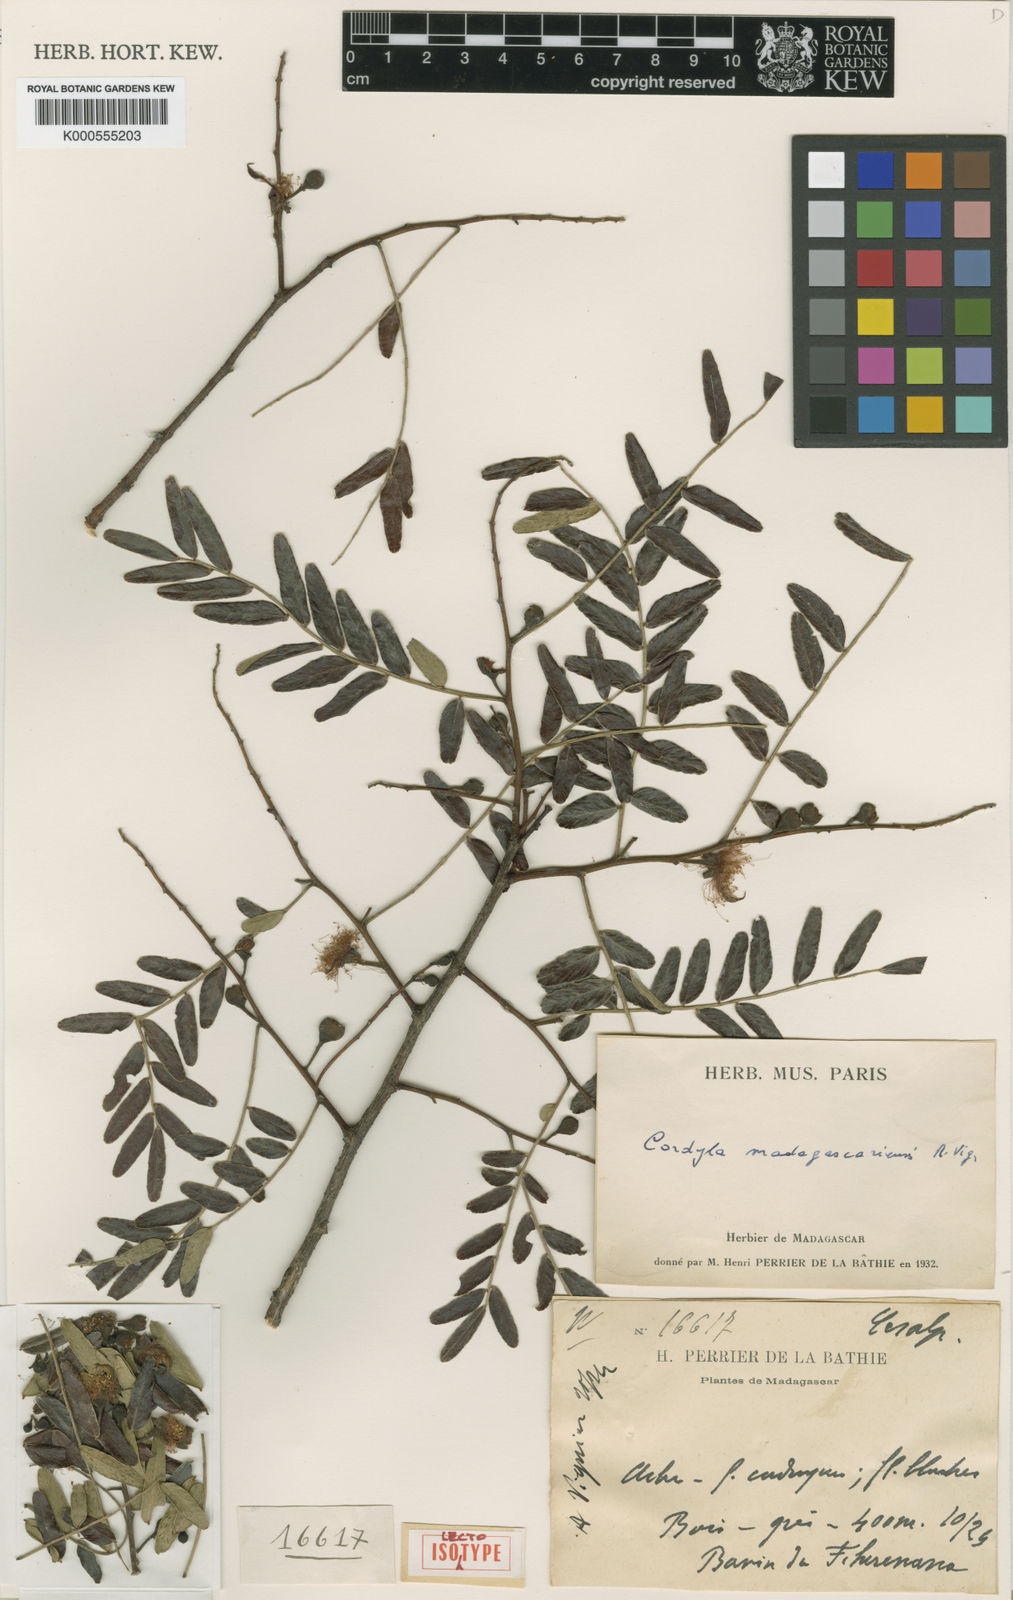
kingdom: Plantae
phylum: Tracheophyta
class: Magnoliopsida
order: Fabales
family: Fabaceae
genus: Cordyla
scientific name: Cordyla madagascariensis
